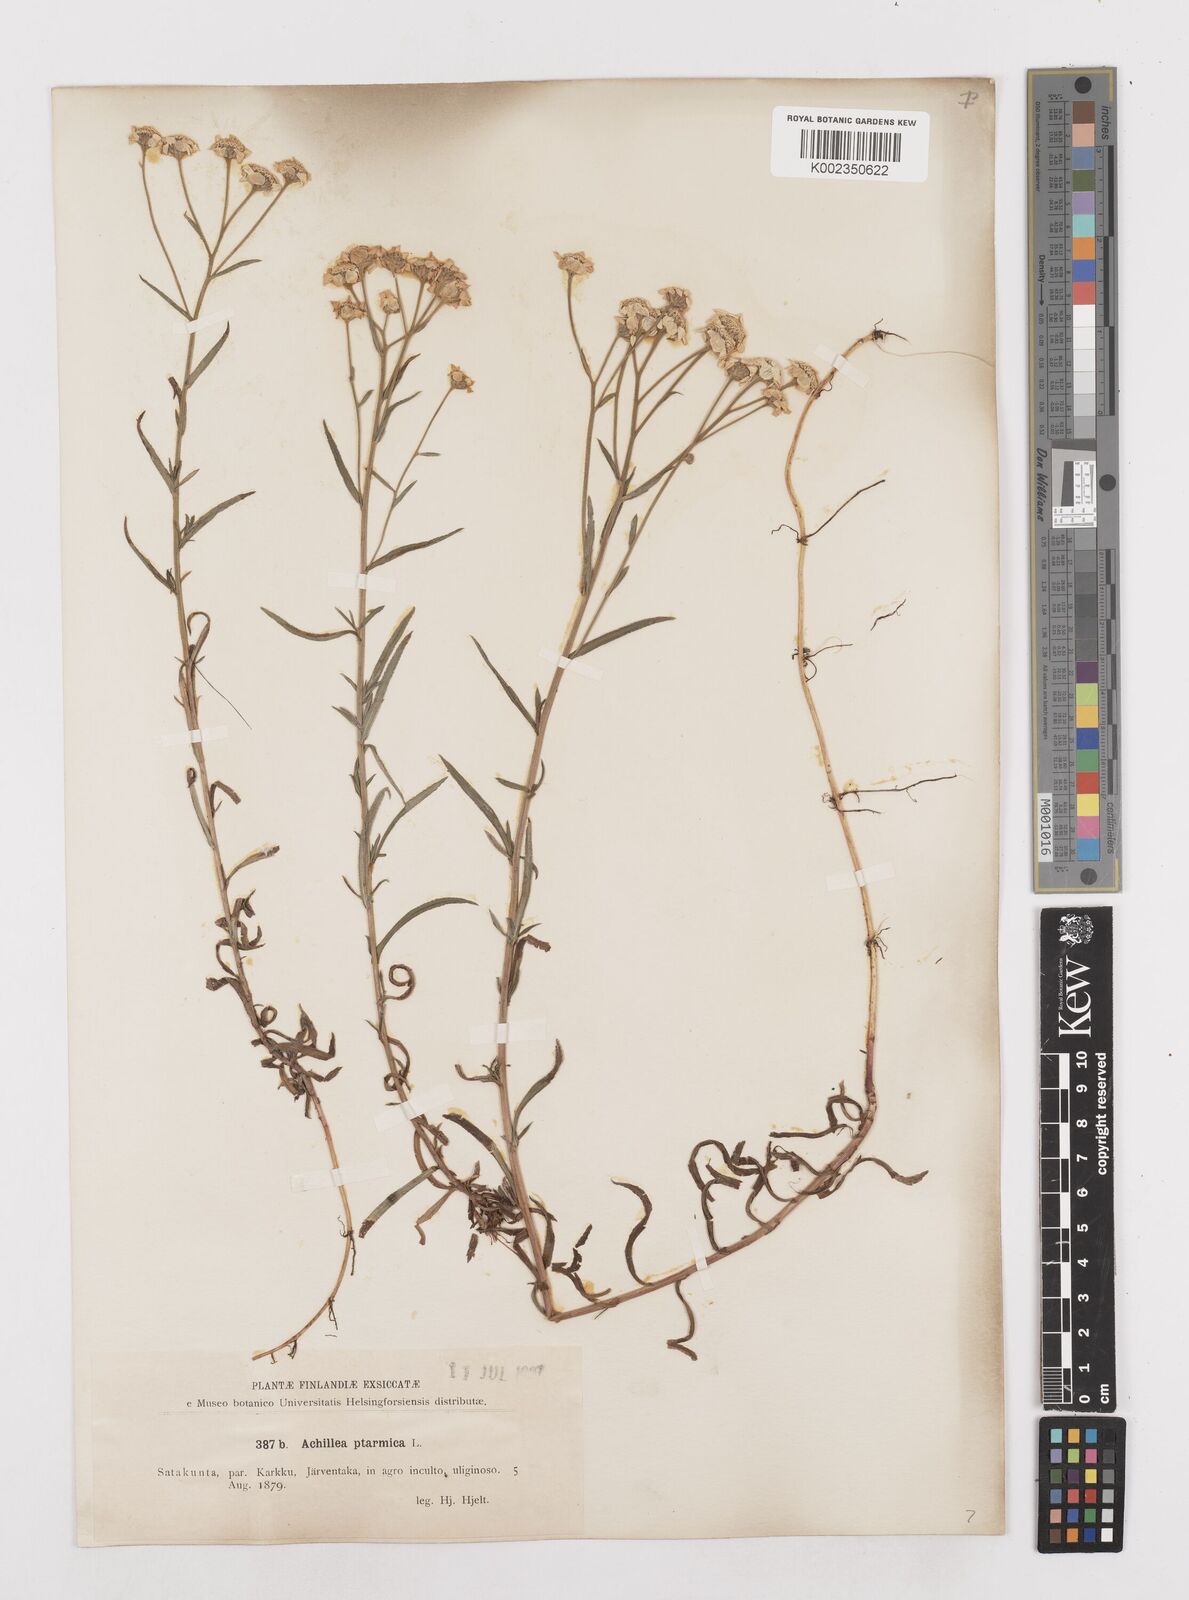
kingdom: Plantae
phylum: Tracheophyta
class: Magnoliopsida
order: Asterales
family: Asteraceae
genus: Achillea
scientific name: Achillea ptarmica
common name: Sneezeweed
